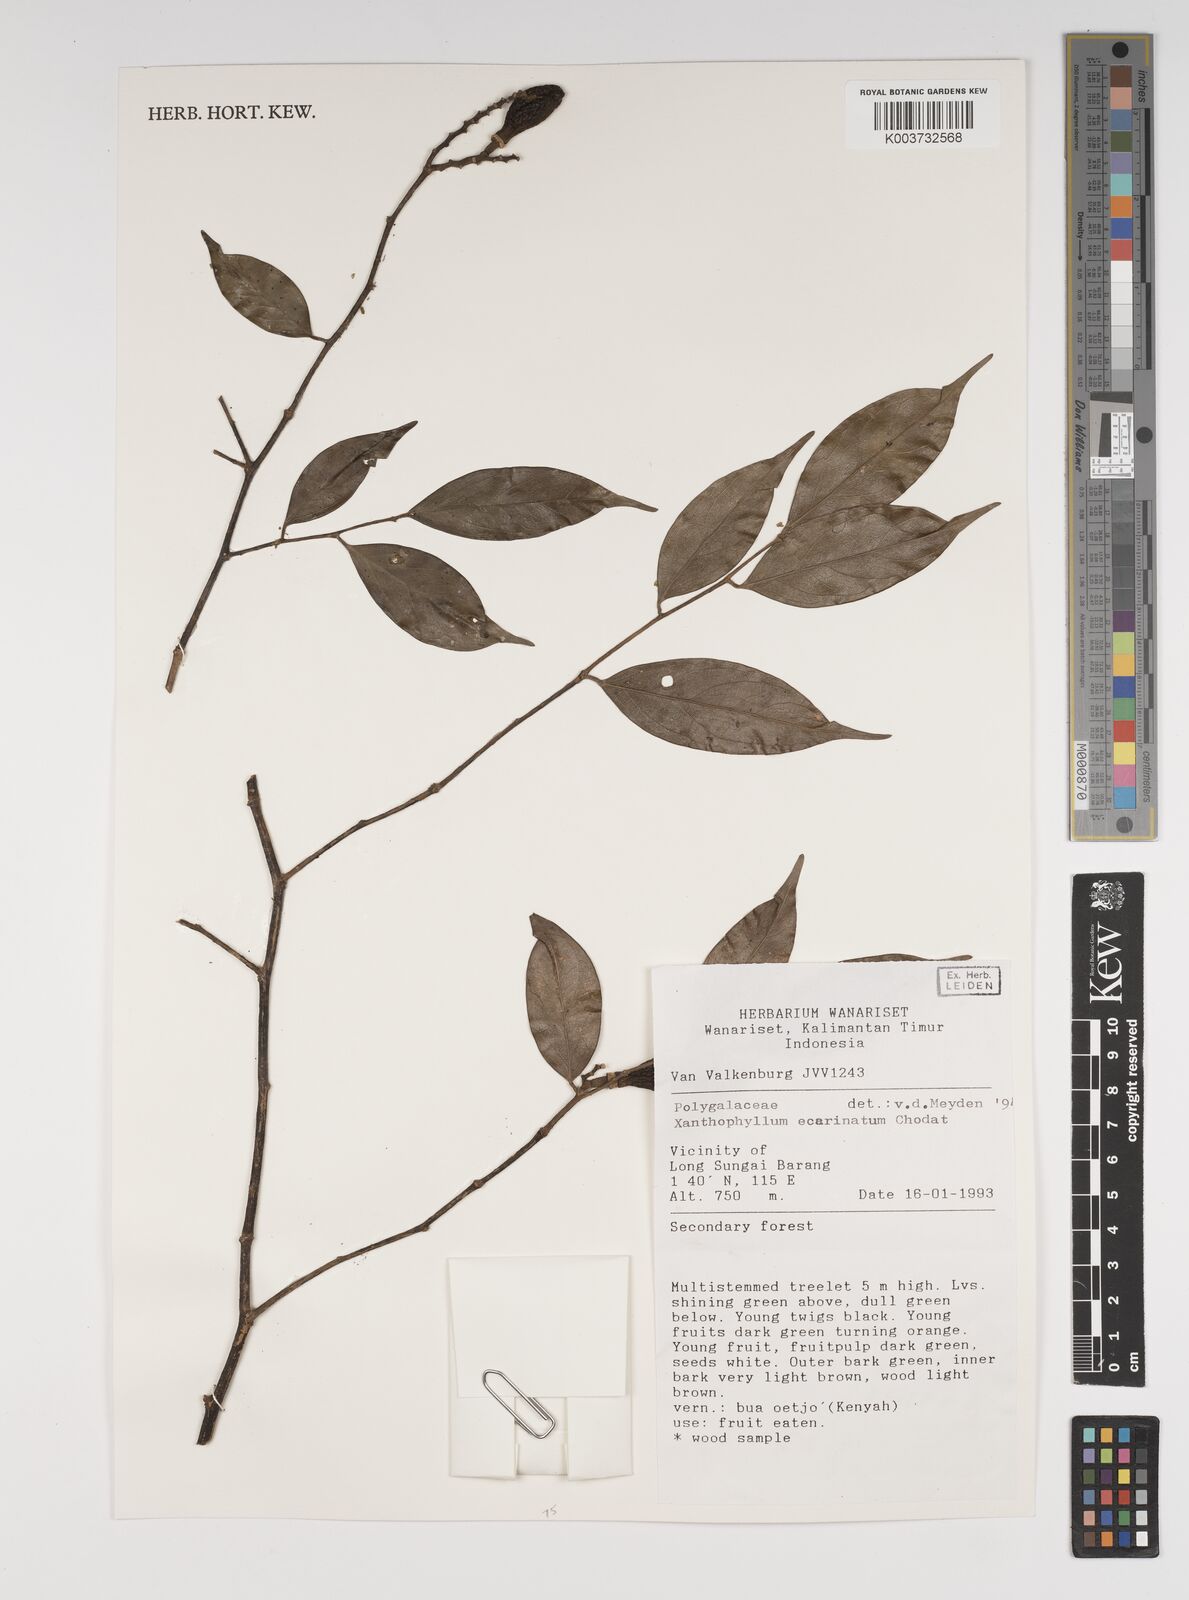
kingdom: Plantae
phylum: Tracheophyta
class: Magnoliopsida
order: Fabales
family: Polygalaceae
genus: Xanthophyllum
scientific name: Xanthophyllum ecarinatum
